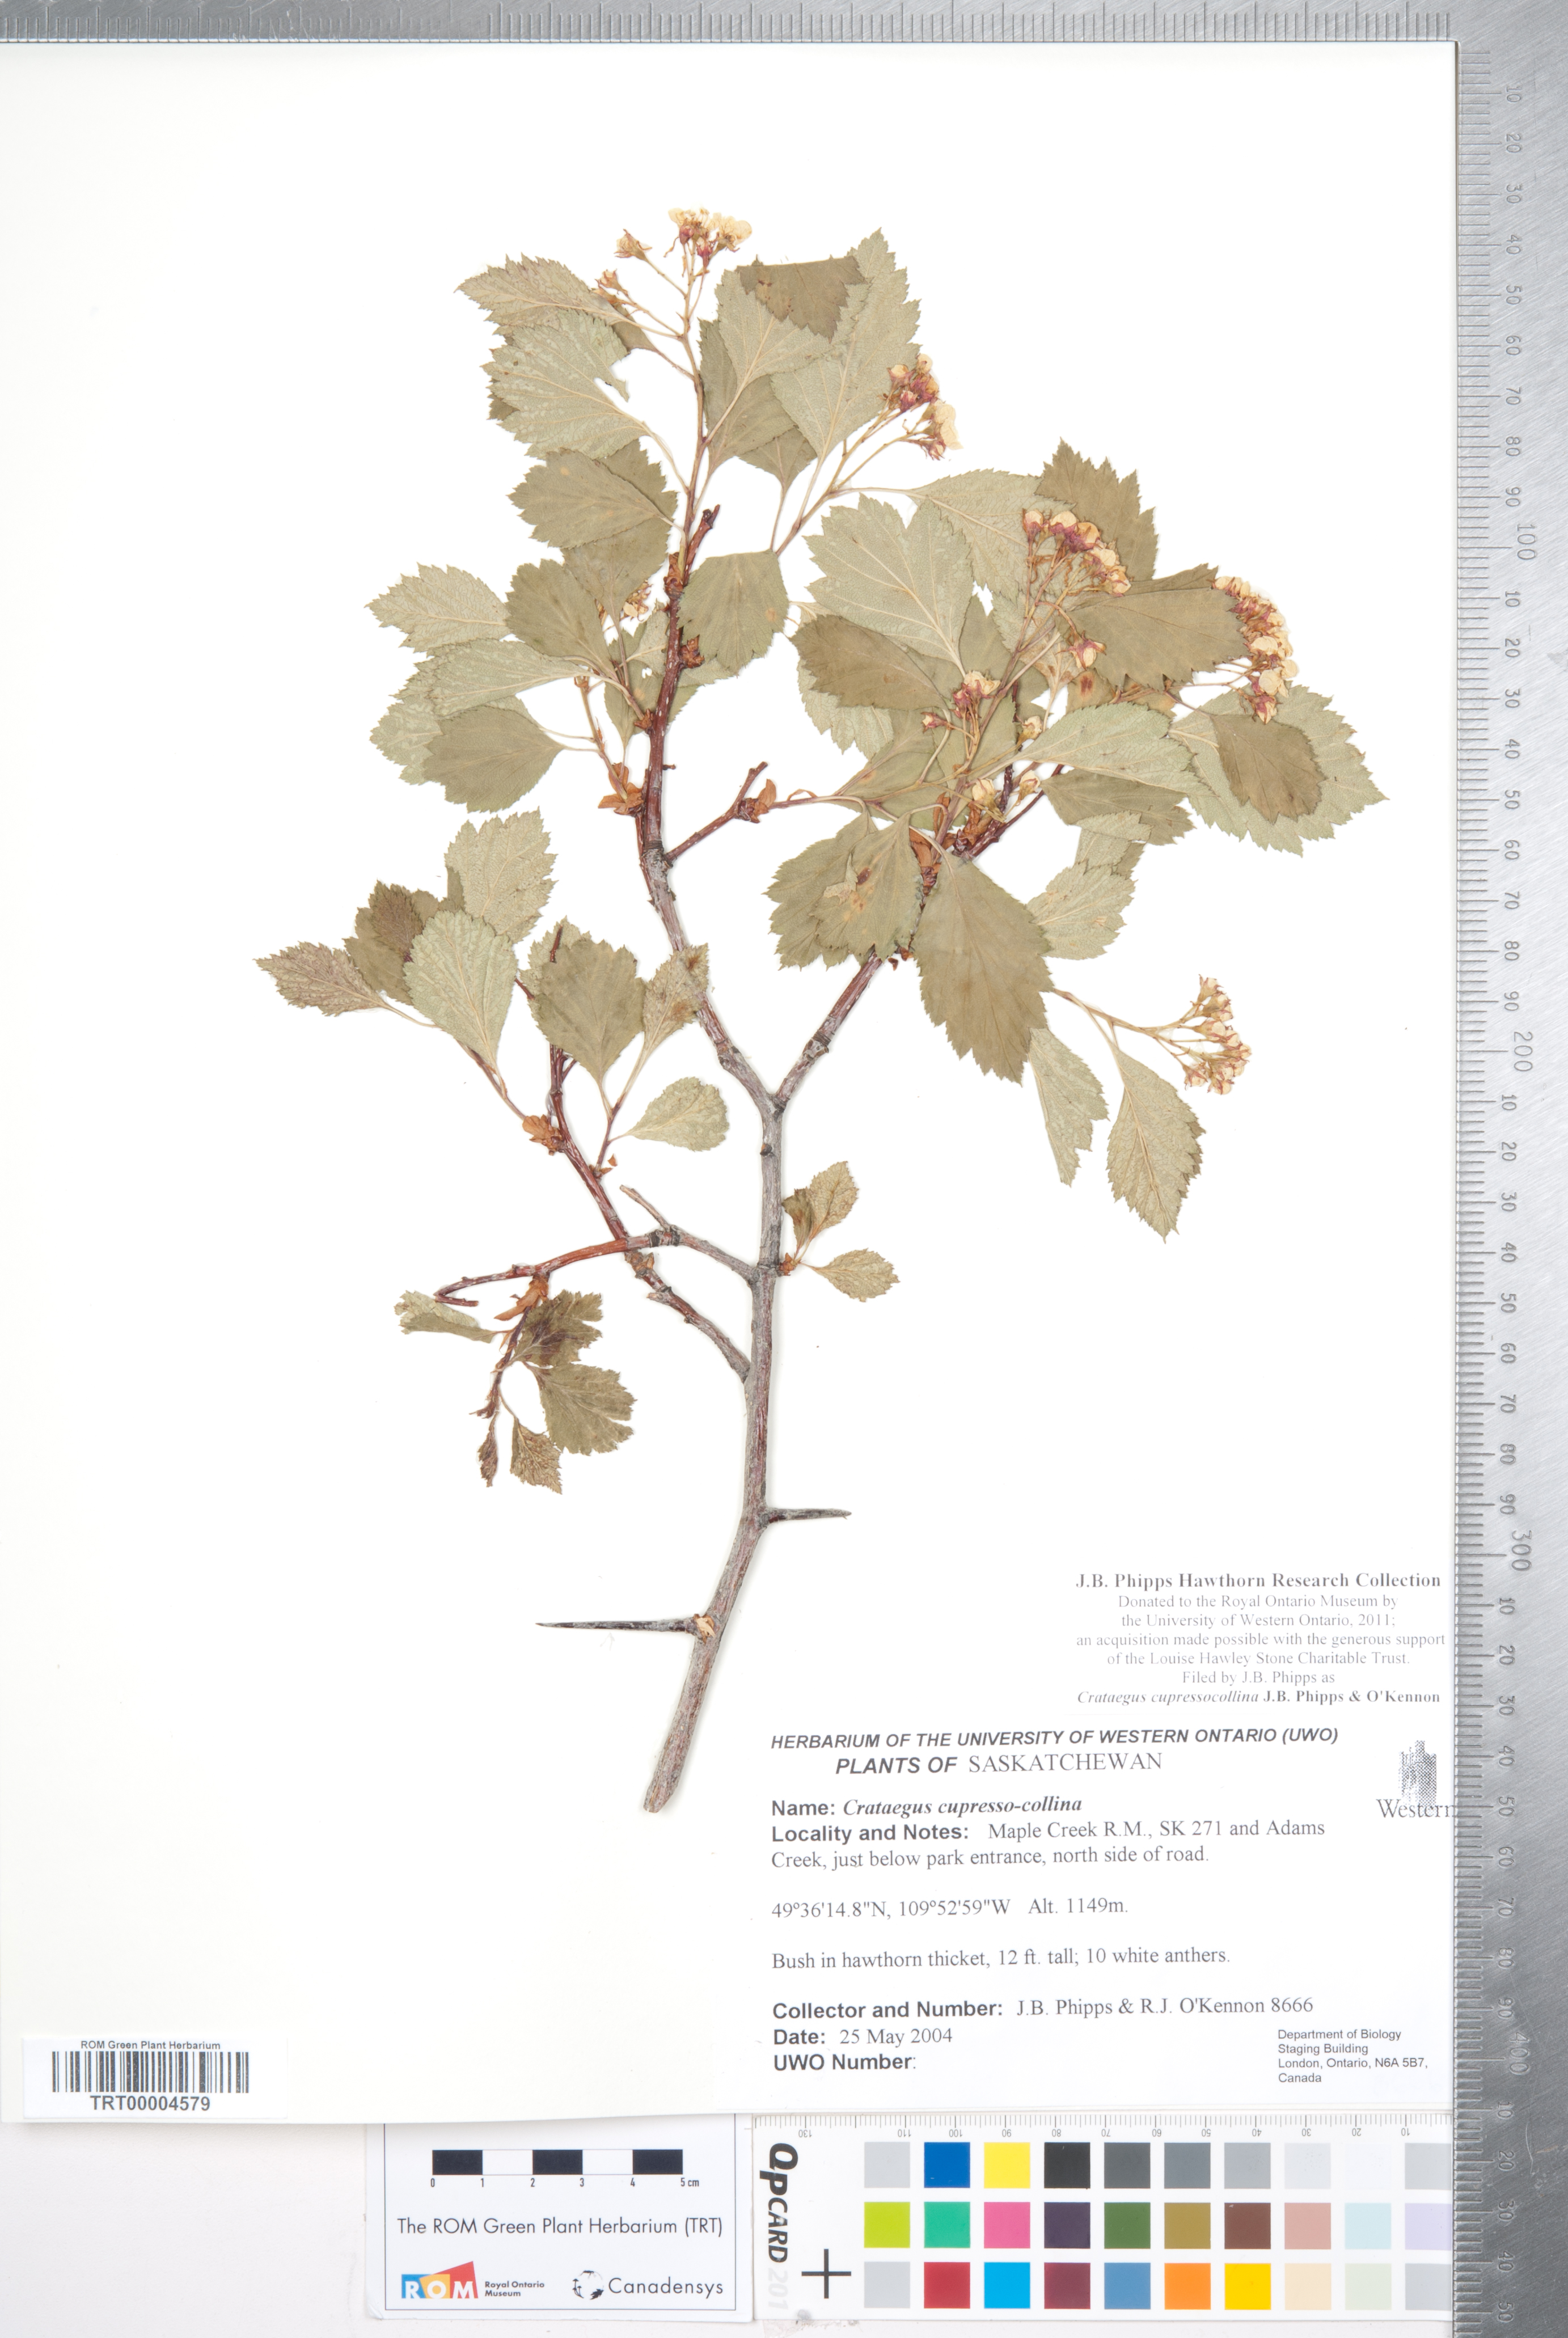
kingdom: Plantae
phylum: Tracheophyta
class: Magnoliopsida
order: Rosales
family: Rosaceae
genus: Crataegus
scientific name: Crataegus cupressocollina
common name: Cypress hills hawthorn
